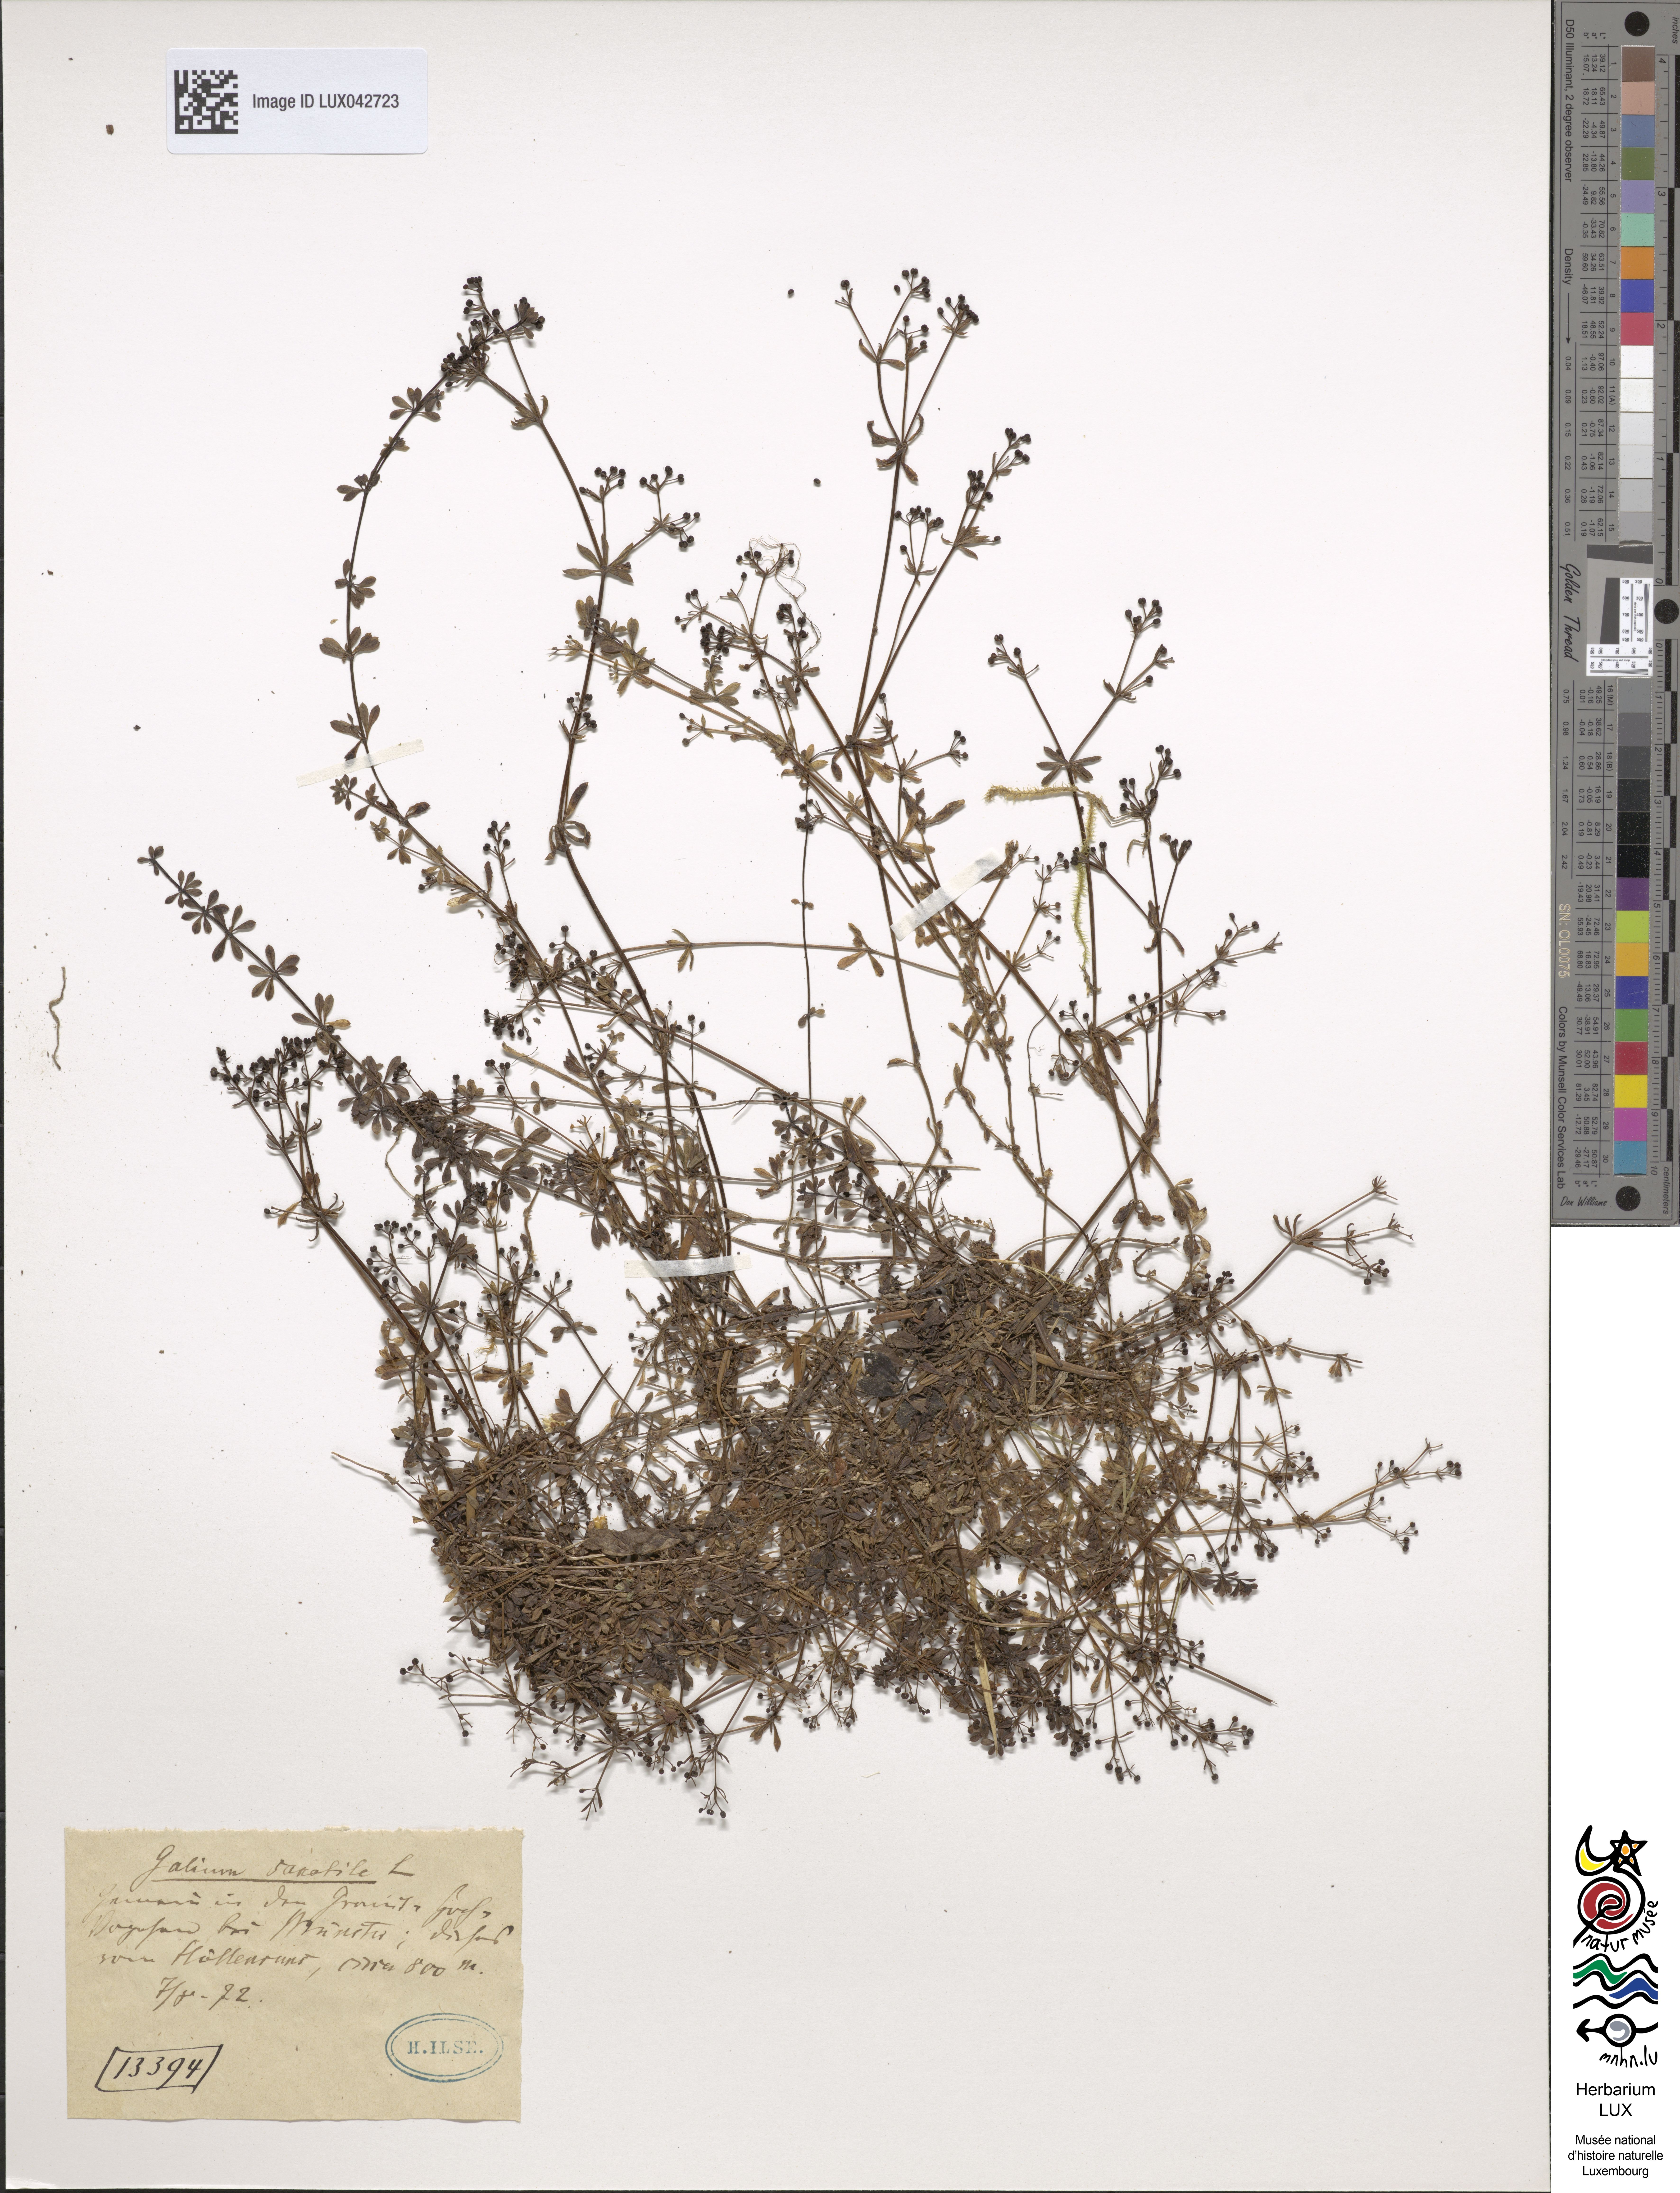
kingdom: Plantae
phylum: Tracheophyta
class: Magnoliopsida
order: Gentianales
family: Rubiaceae
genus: Galium
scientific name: Galium saxatile
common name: Heath bedstraw
